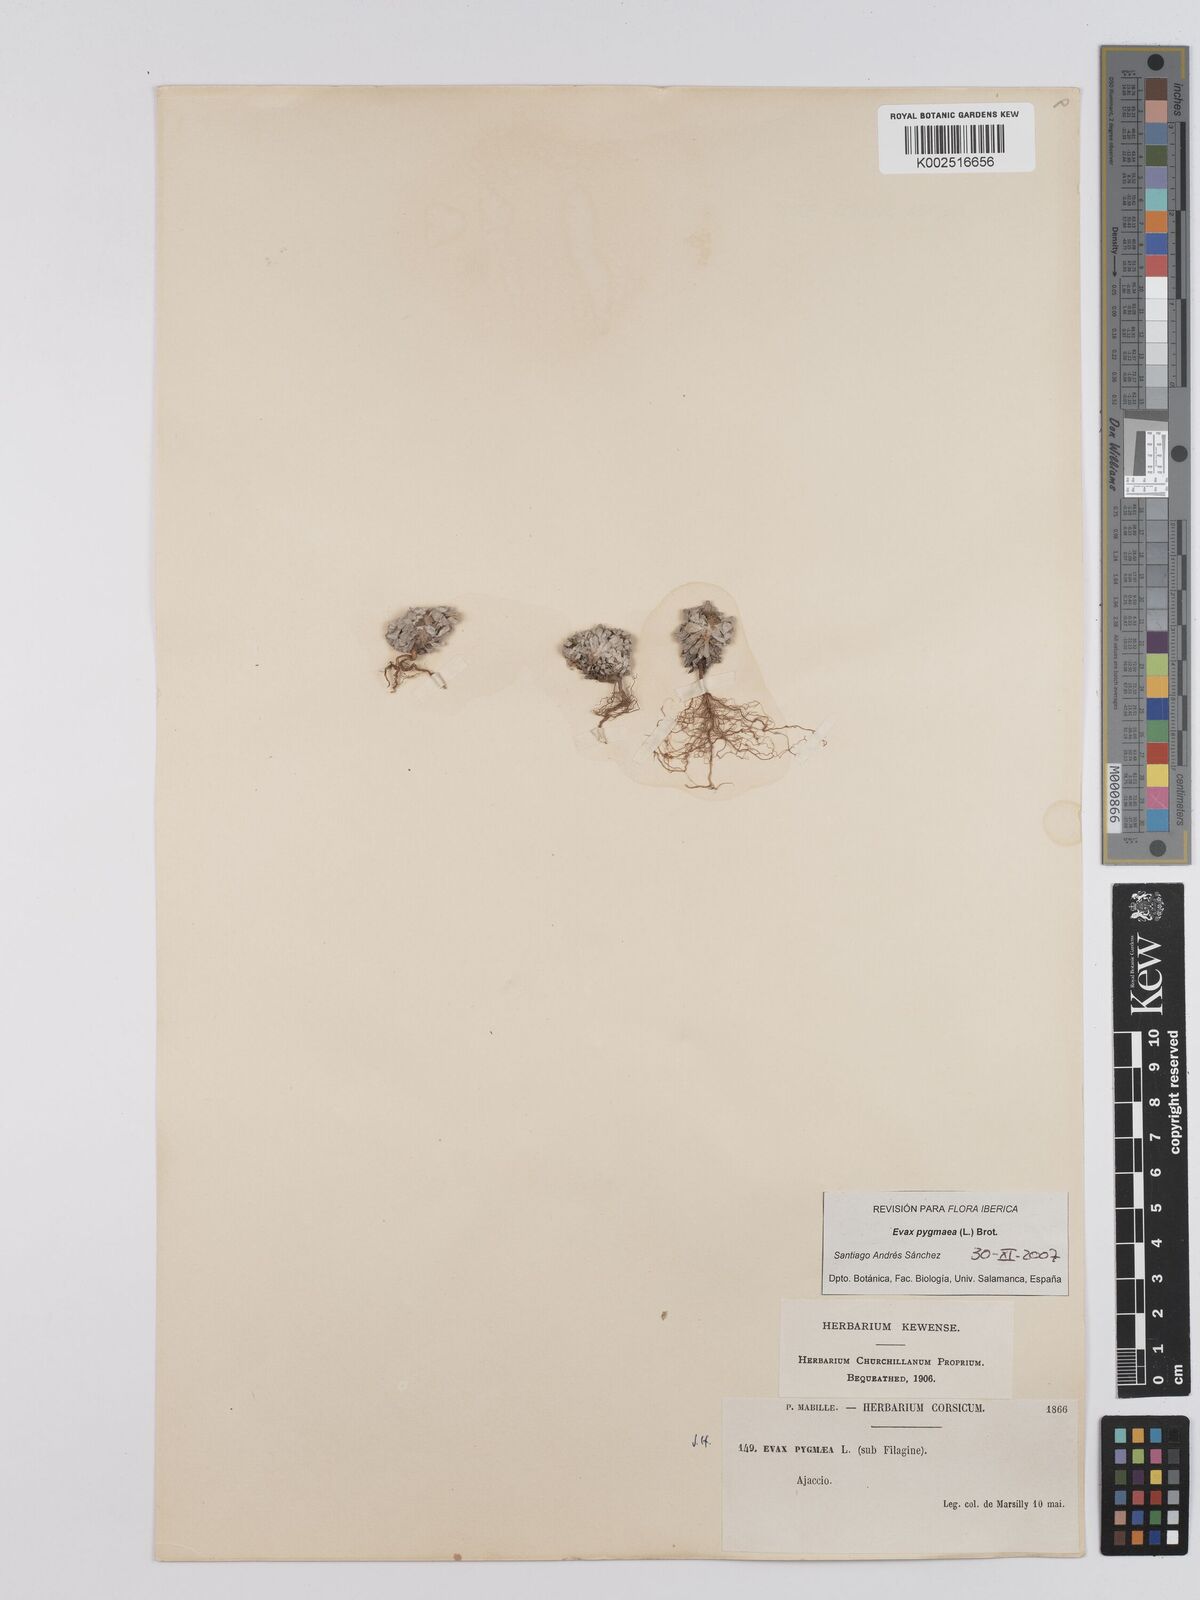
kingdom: Plantae
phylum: Tracheophyta
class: Magnoliopsida
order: Asterales
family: Asteraceae
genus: Filago
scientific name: Filago pygmaea
